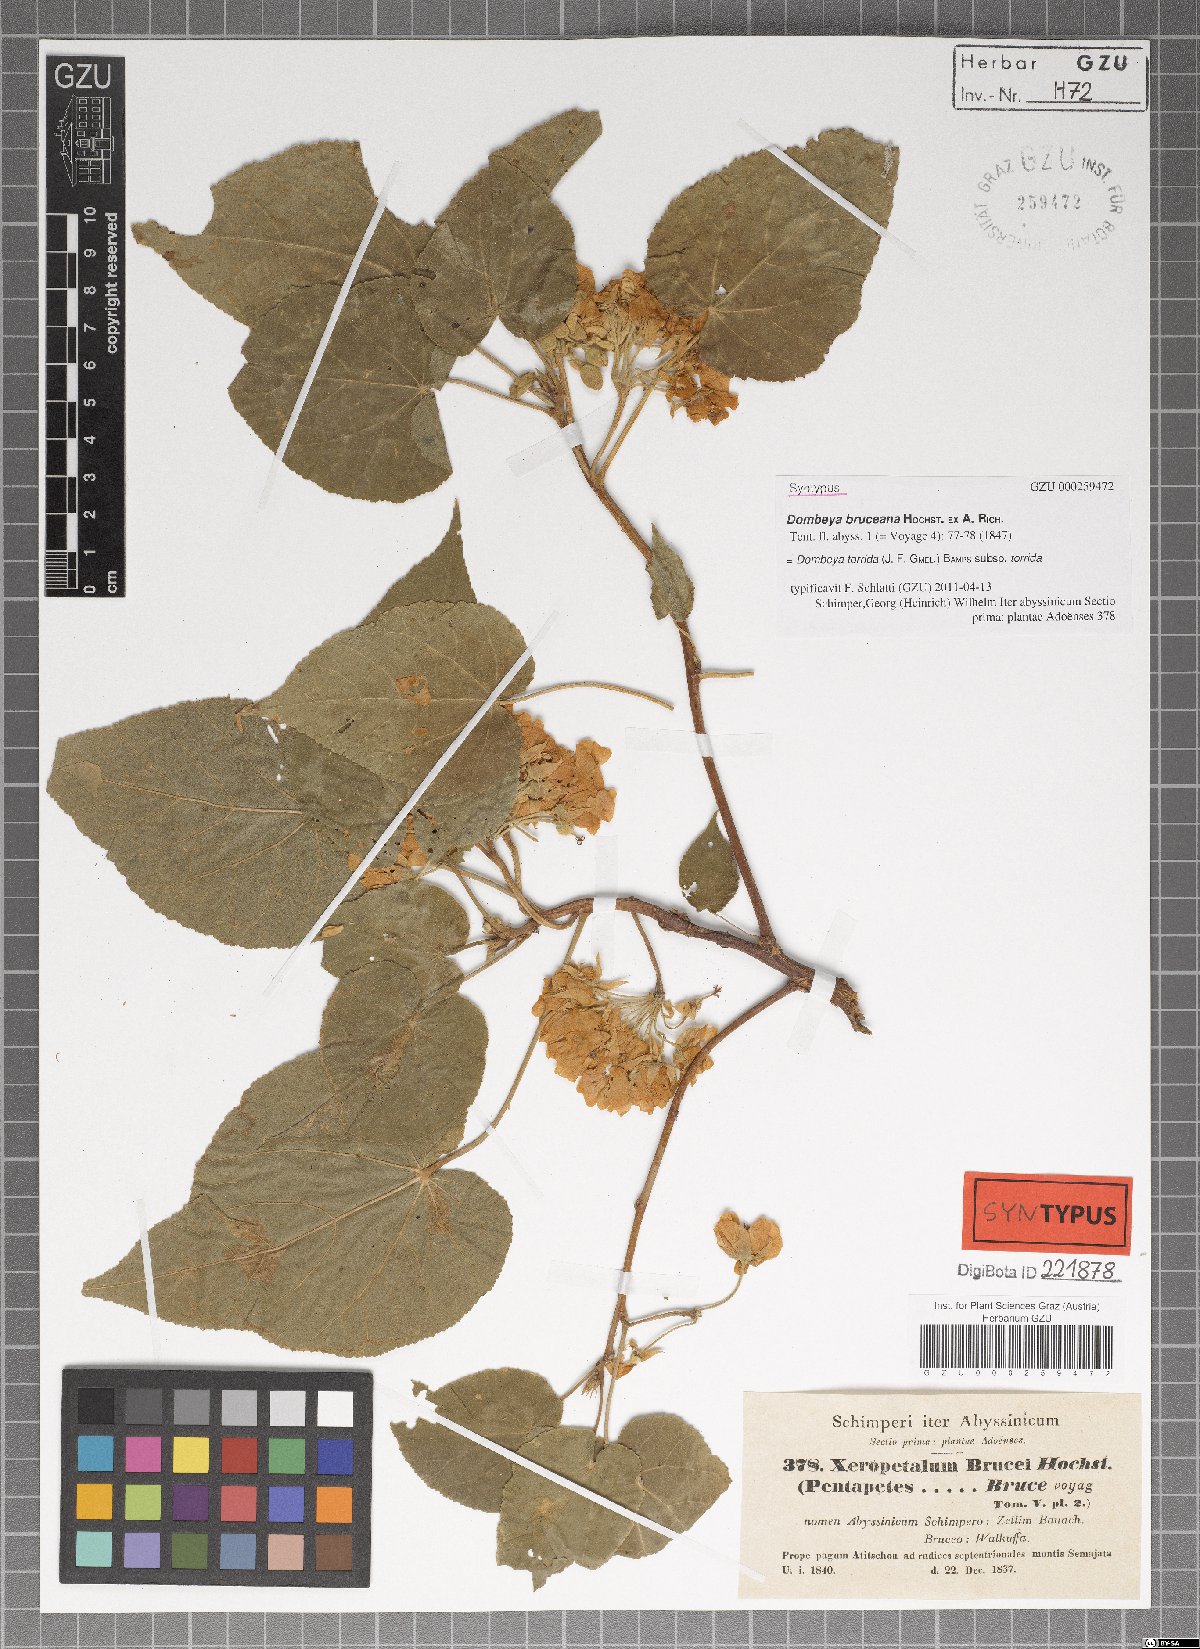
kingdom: Plantae
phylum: Tracheophyta
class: Magnoliopsida
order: Malvales
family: Malvaceae
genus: Dombeya
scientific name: Dombeya torrida
